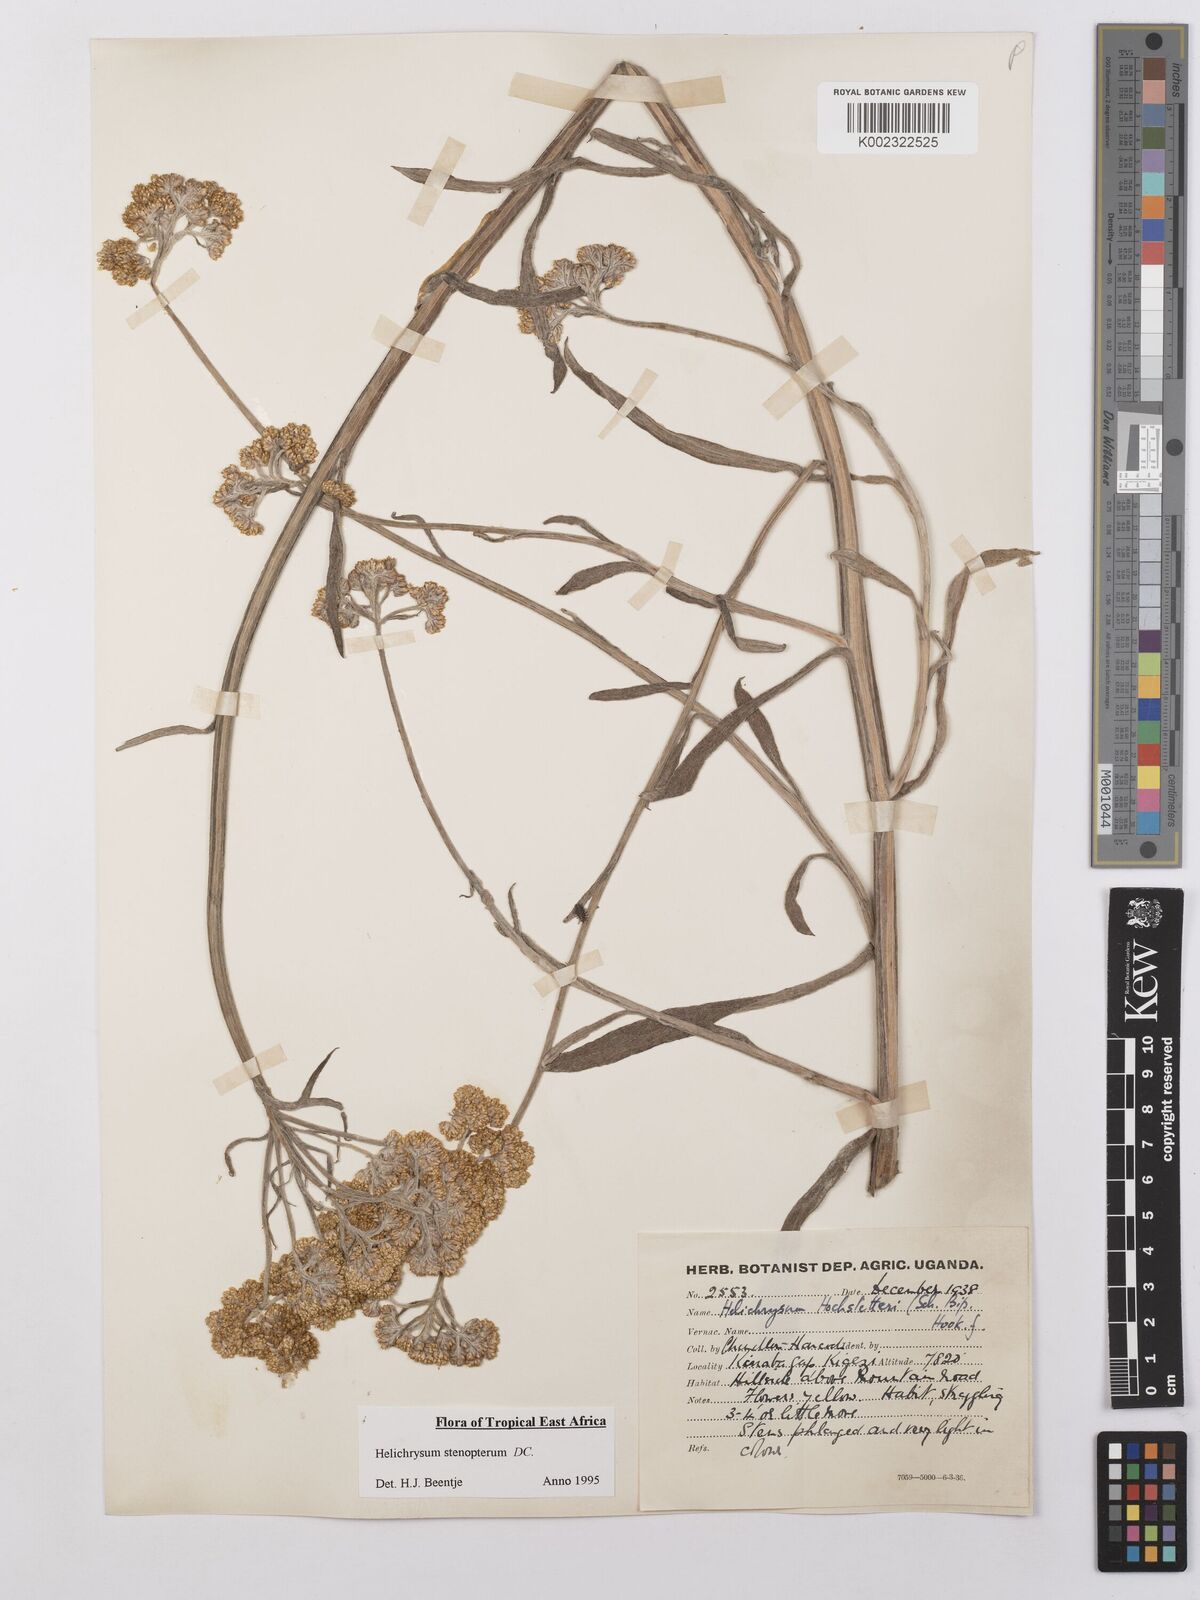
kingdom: Plantae
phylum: Tracheophyta
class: Magnoliopsida
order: Asterales
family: Asteraceae
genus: Helichrysum
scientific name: Helichrysum stenopterum
